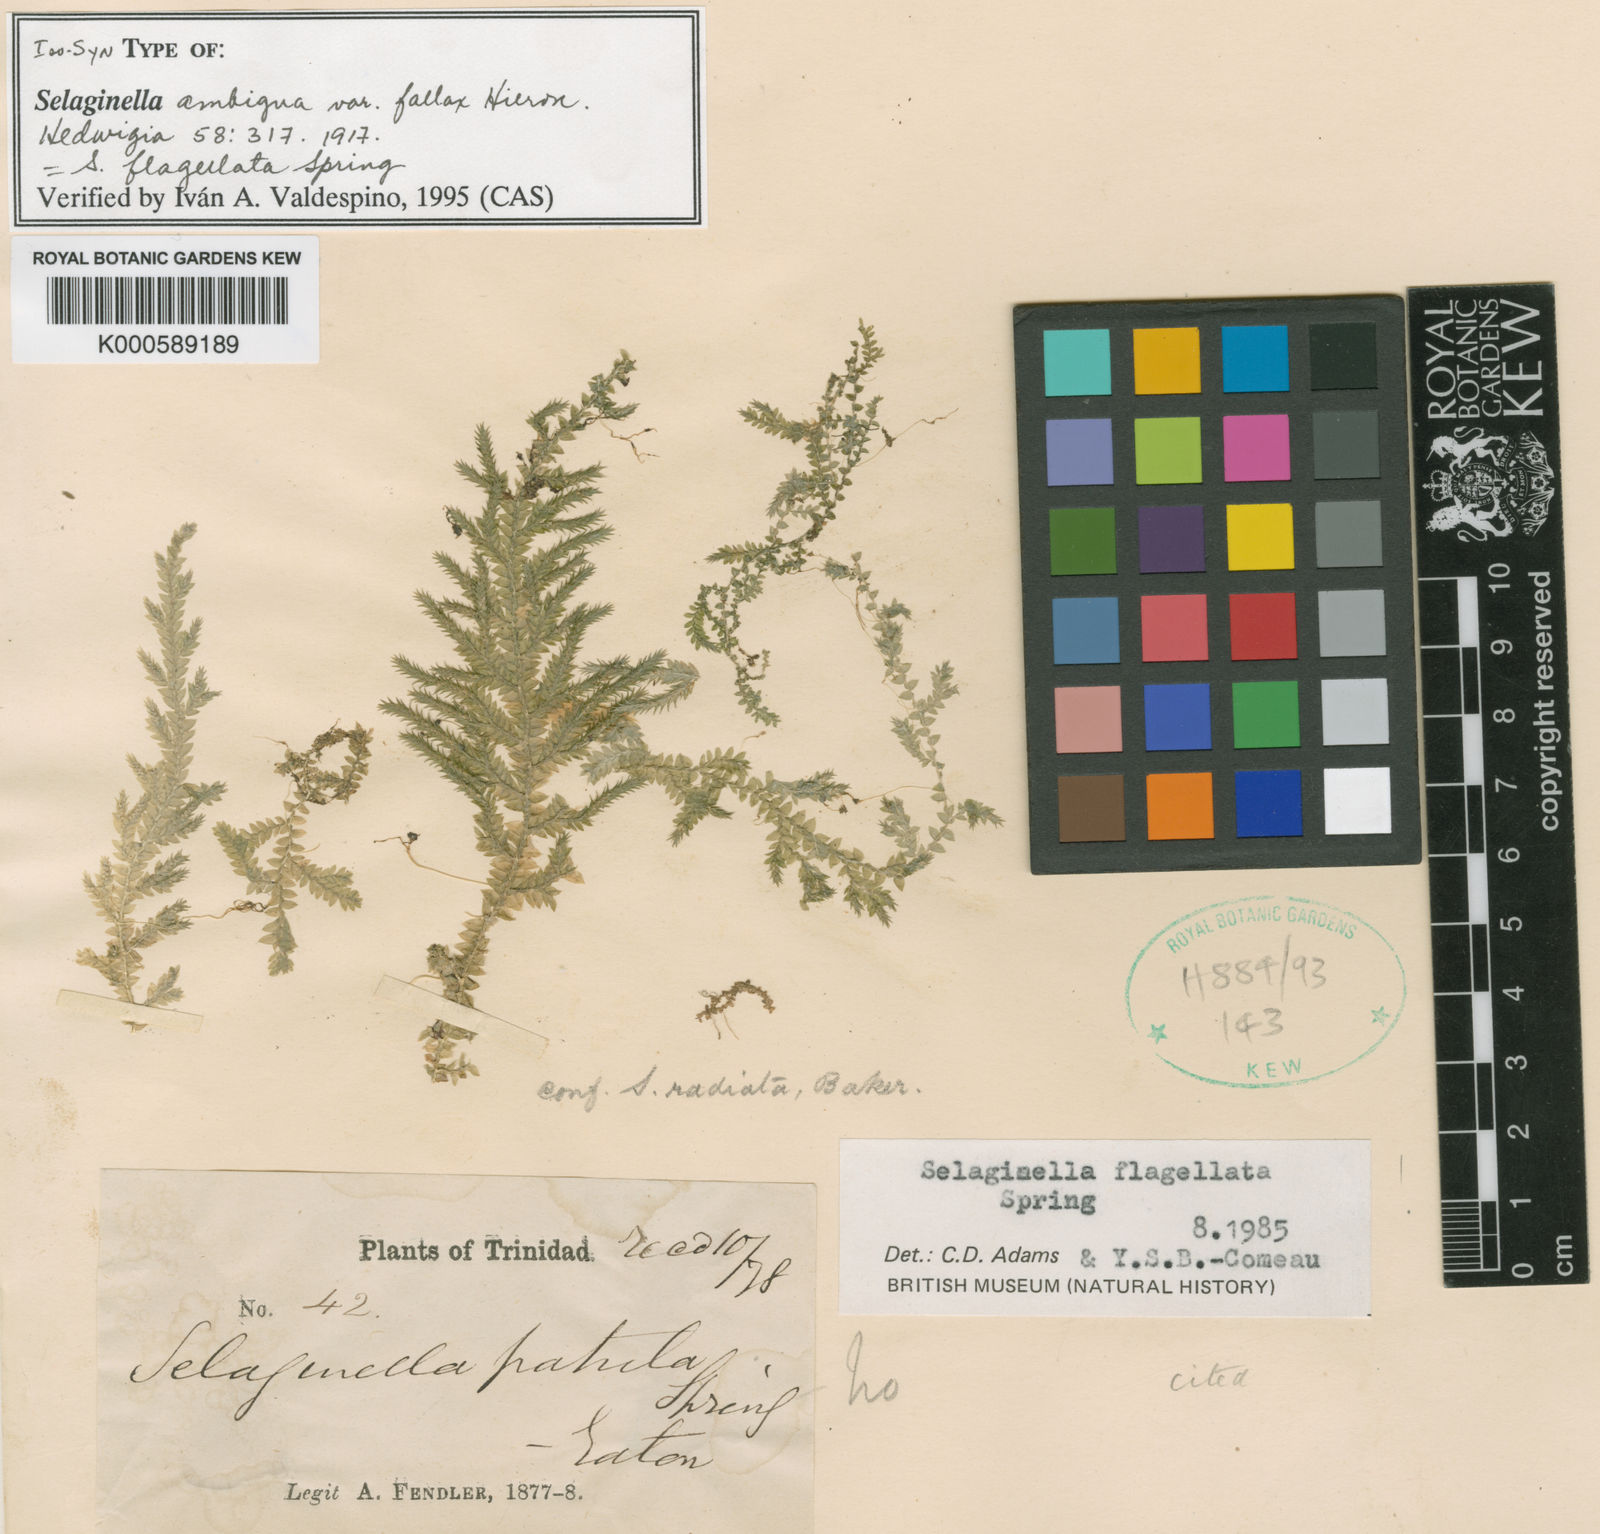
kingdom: Plantae
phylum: Tracheophyta
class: Lycopodiopsida
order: Selaginellales
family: Selaginellaceae
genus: Selaginella
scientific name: Selaginella flagellata
